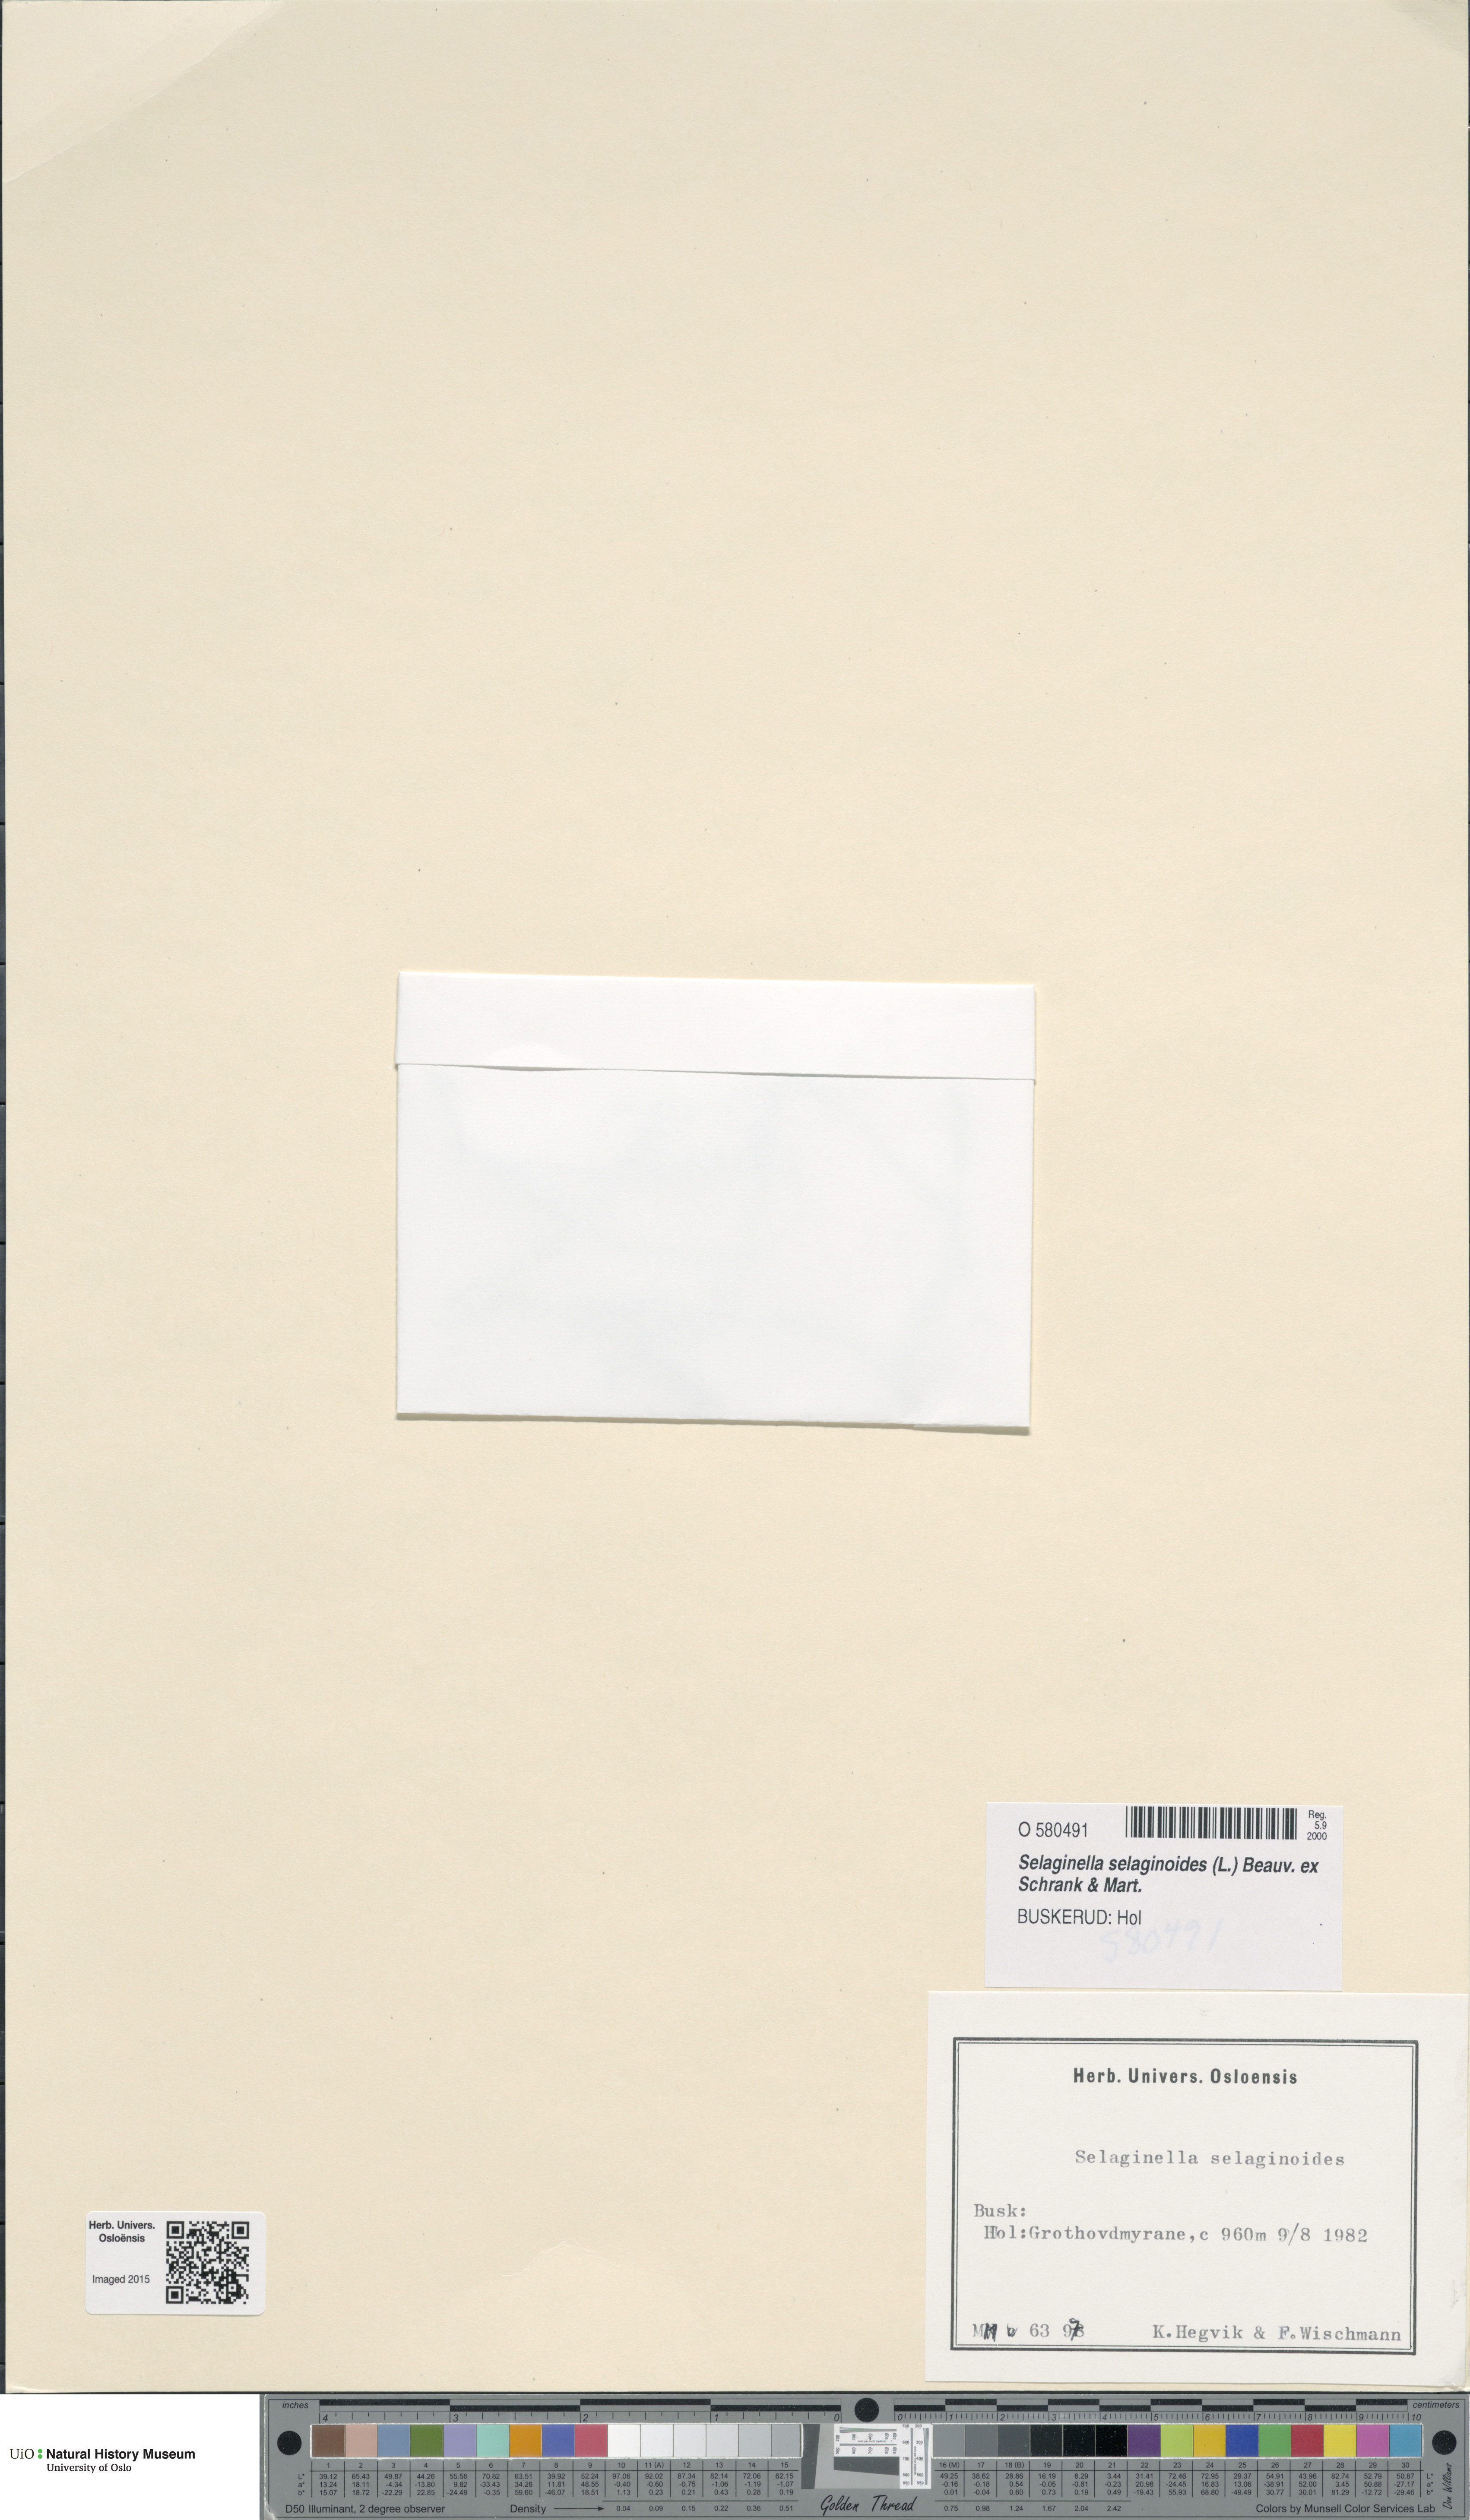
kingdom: Plantae
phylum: Tracheophyta
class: Lycopodiopsida
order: Selaginellales
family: Selaginellaceae
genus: Selaginella
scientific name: Selaginella selaginoides
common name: Prickly mountain-moss
